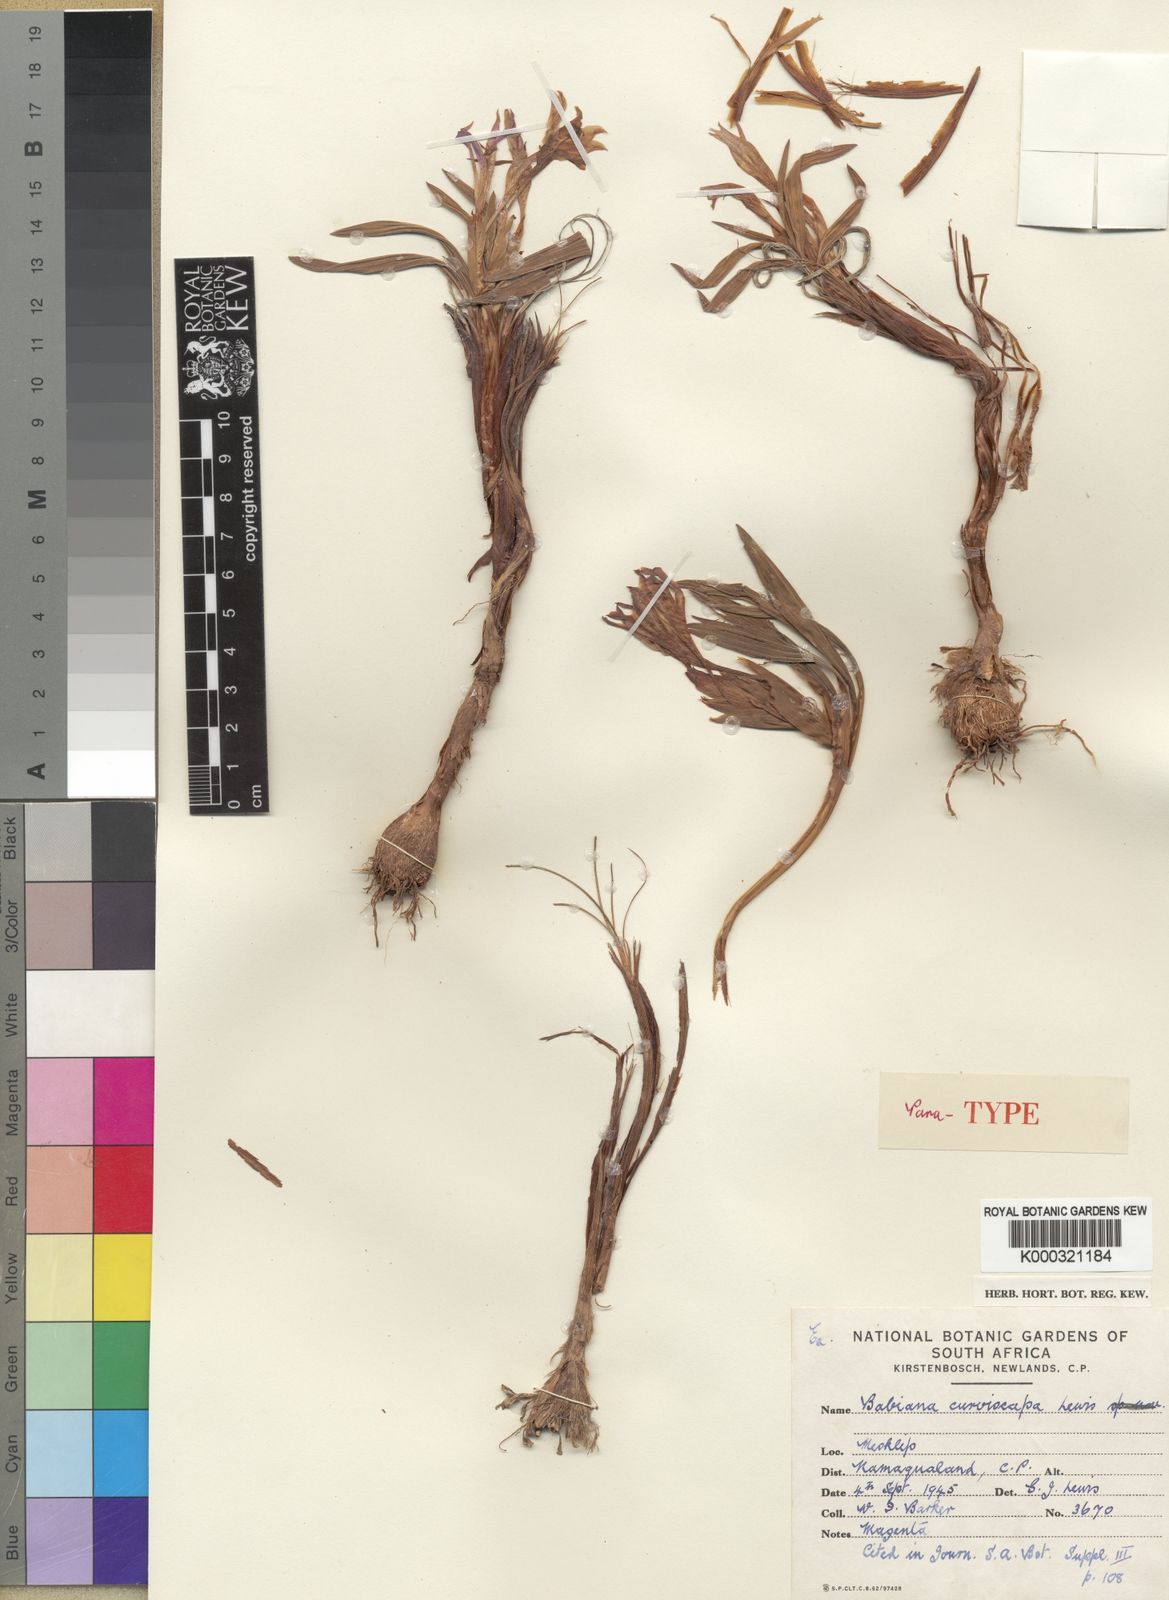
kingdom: Plantae
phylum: Tracheophyta
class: Liliopsida
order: Asparagales
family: Iridaceae
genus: Babiana
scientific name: Babiana curviscapa
